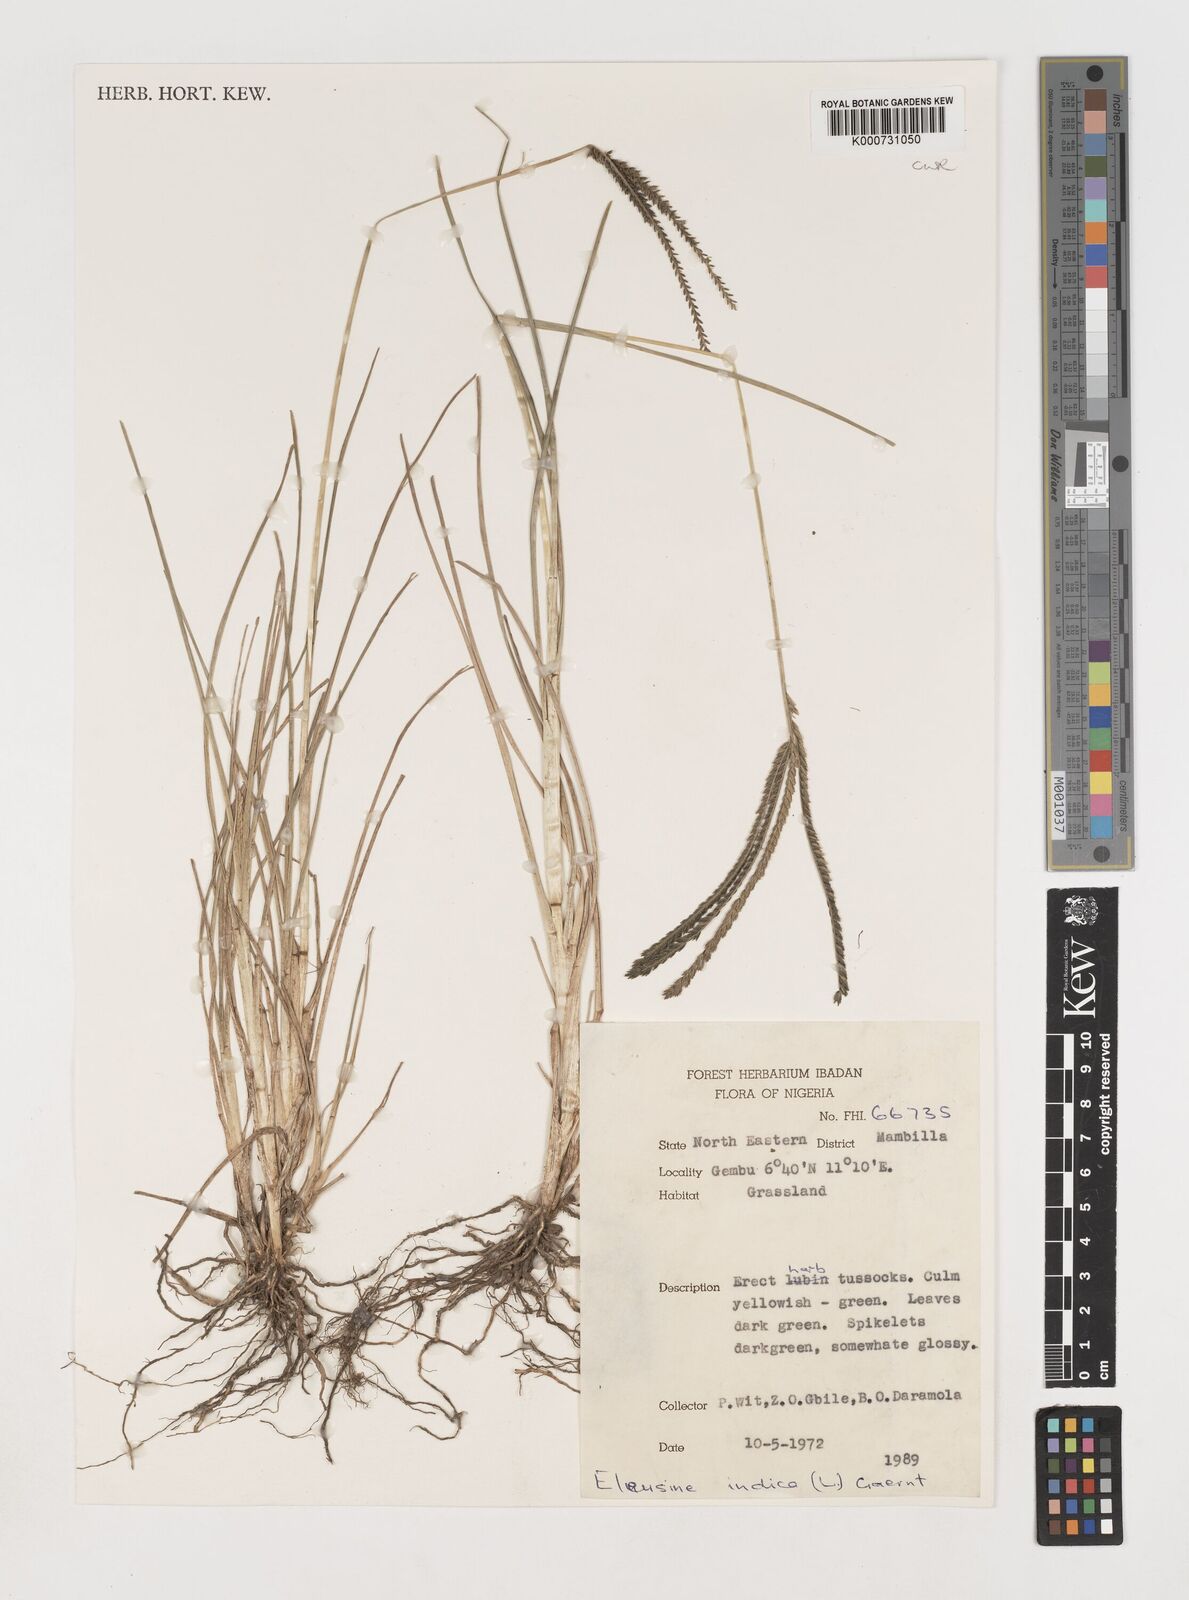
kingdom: Plantae
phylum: Tracheophyta
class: Liliopsida
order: Poales
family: Poaceae
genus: Eleusine
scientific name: Eleusine indica
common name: Yard-grass
